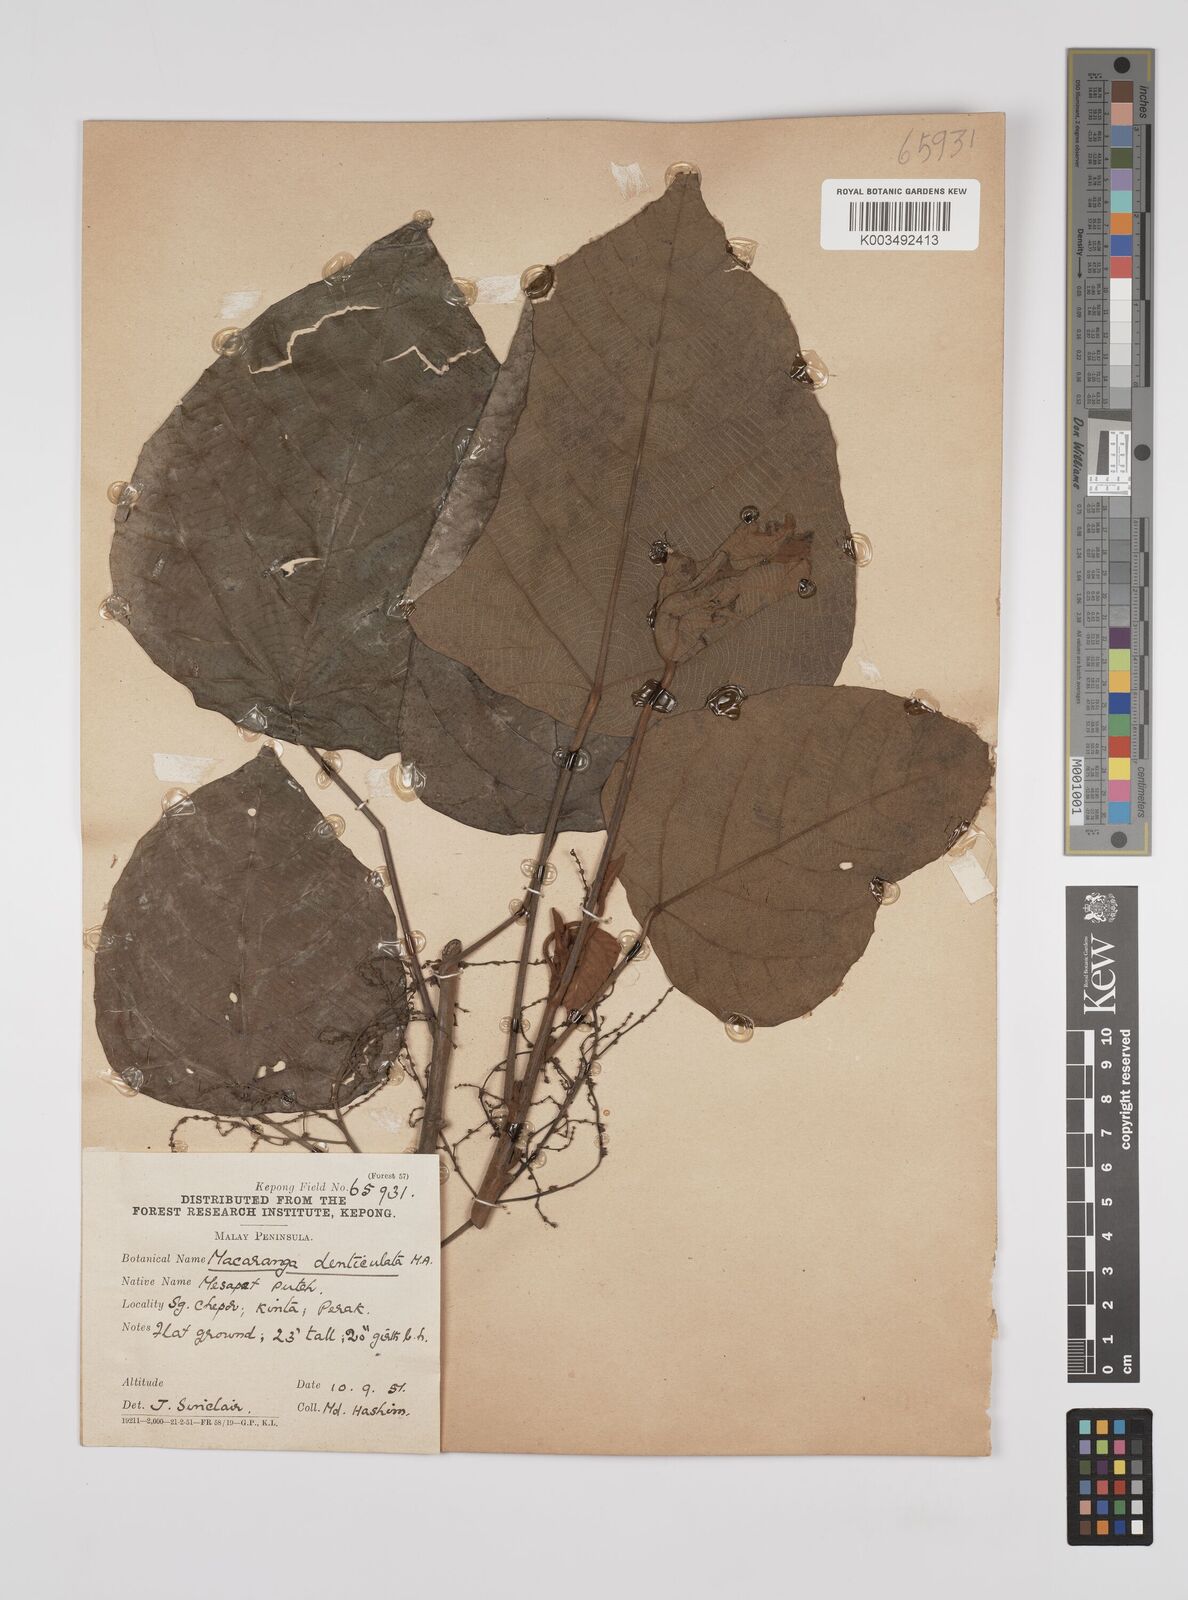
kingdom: Plantae
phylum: Tracheophyta
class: Magnoliopsida
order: Malpighiales
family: Euphorbiaceae
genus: Macaranga
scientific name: Macaranga denticulata
